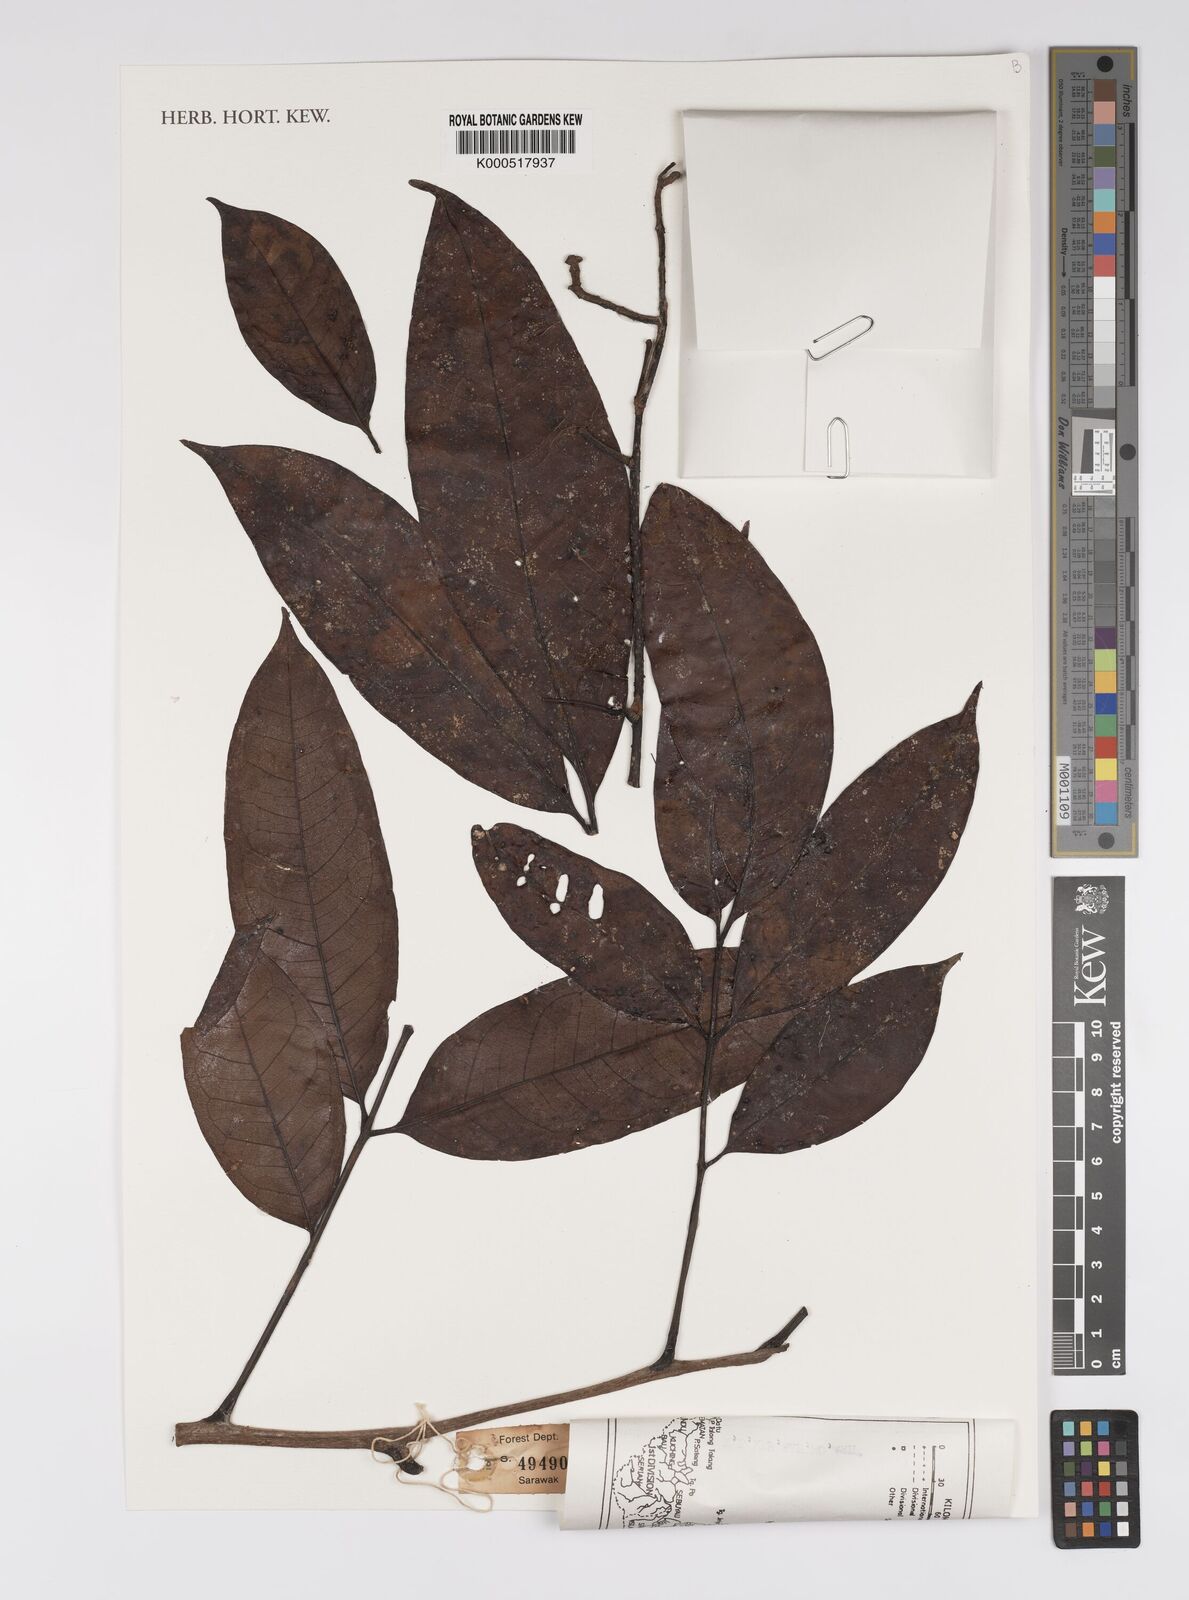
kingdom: Plantae
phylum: Tracheophyta
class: Magnoliopsida
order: Proteales
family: Sabiaceae
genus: Meliosma
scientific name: Meliosma sumatrana
